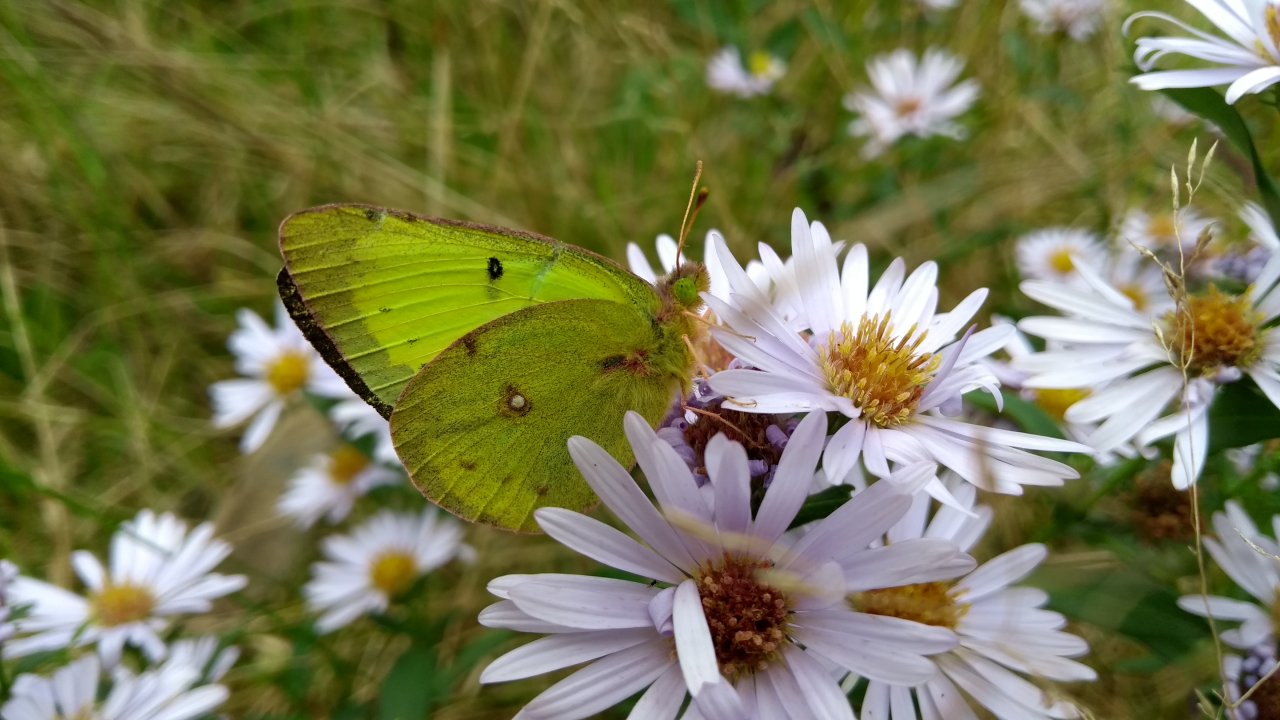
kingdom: Animalia
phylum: Arthropoda
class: Insecta
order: Lepidoptera
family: Pieridae
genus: Colias
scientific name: Colias philodice
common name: Clouded Sulphur
